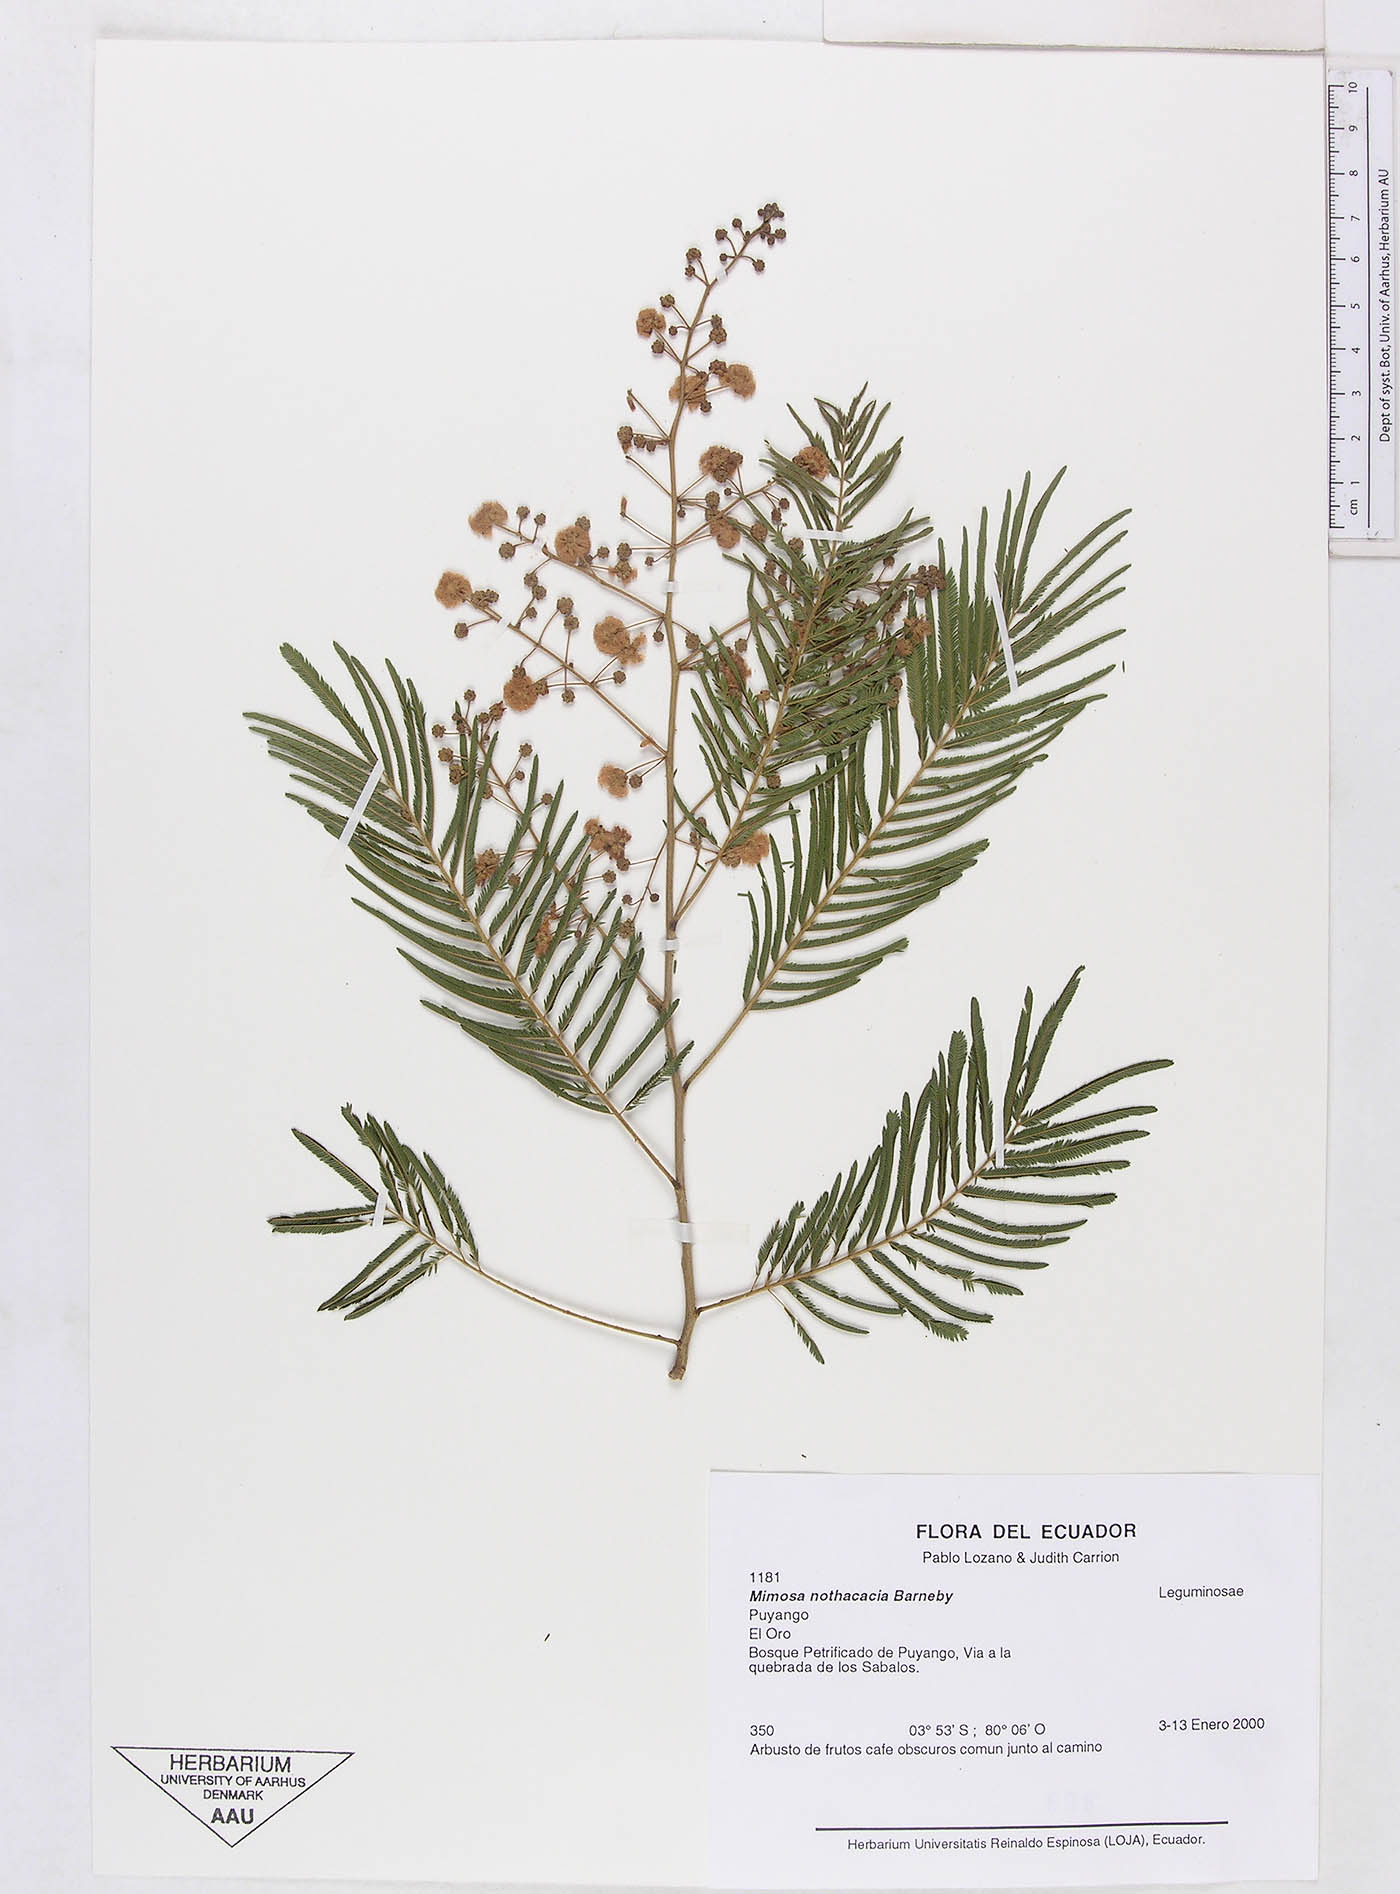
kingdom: Plantae
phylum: Tracheophyta
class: Magnoliopsida
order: Fabales
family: Fabaceae
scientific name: Fabaceae
